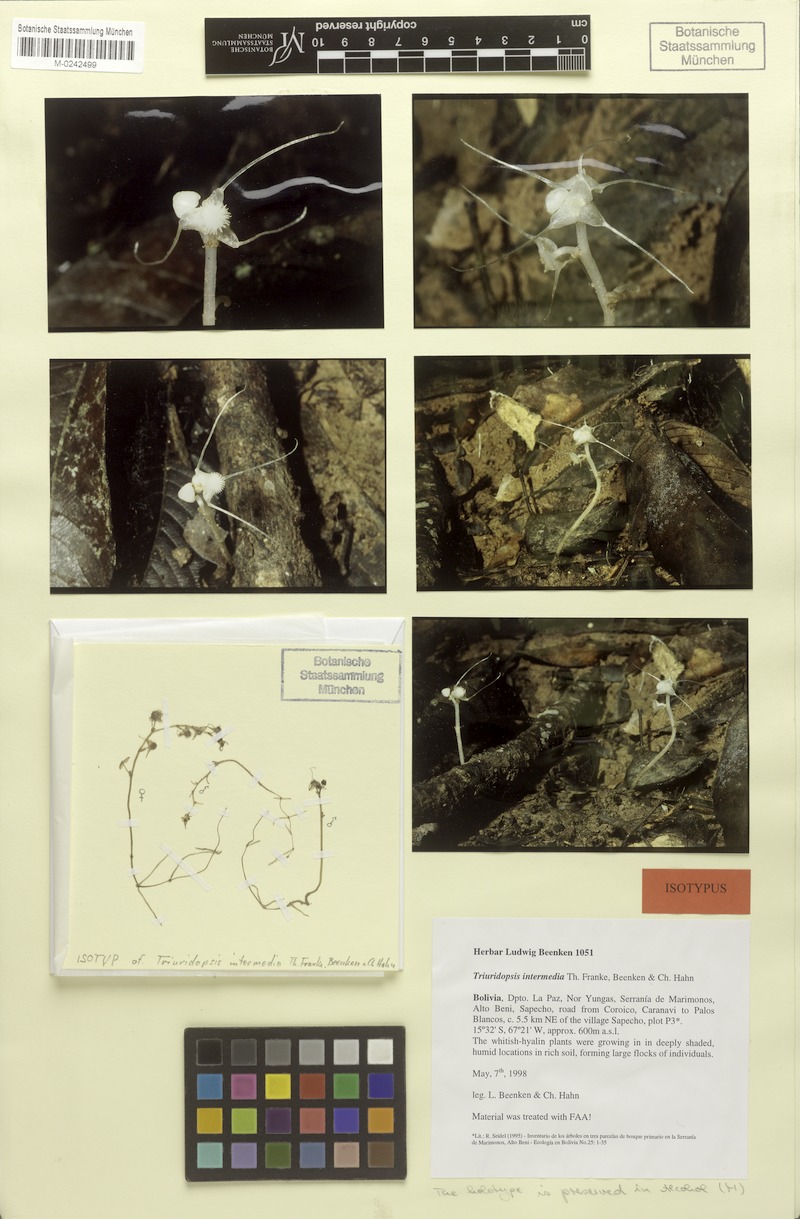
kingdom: Plantae
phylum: Tracheophyta
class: Liliopsida
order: Pandanales
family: Triuridaceae
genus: Triuridopsis
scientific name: Triuridopsis intermedia
